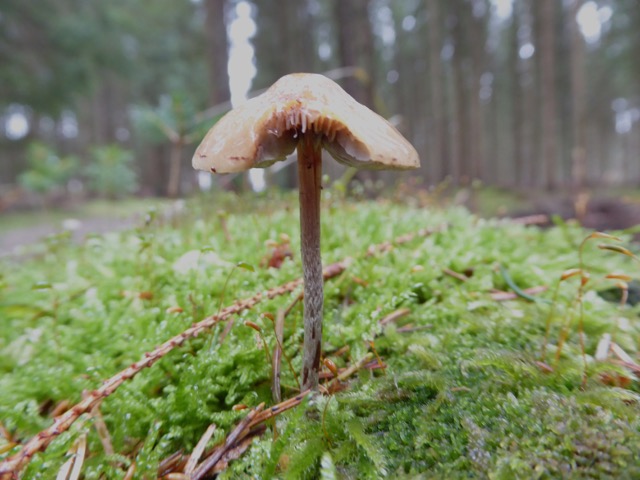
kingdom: Fungi
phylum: Basidiomycota
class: Agaricomycetes
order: Agaricales
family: Strophariaceae
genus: Hypholoma
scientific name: Hypholoma marginatum
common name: enlig svovlhat
